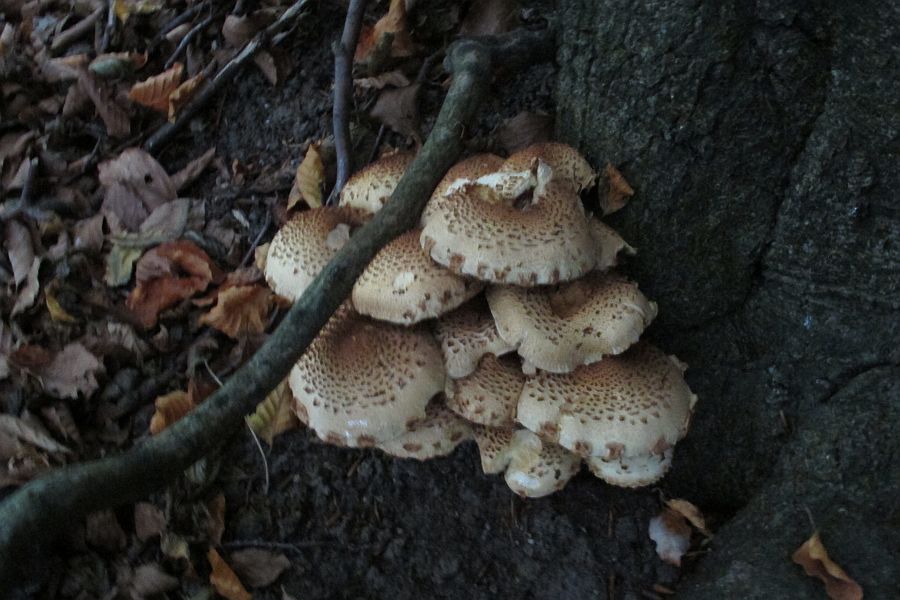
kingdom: Fungi
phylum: Basidiomycota
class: Agaricomycetes
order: Agaricales
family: Strophariaceae
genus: Pholiota
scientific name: Pholiota squarrosa
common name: krumskællet skælhat
